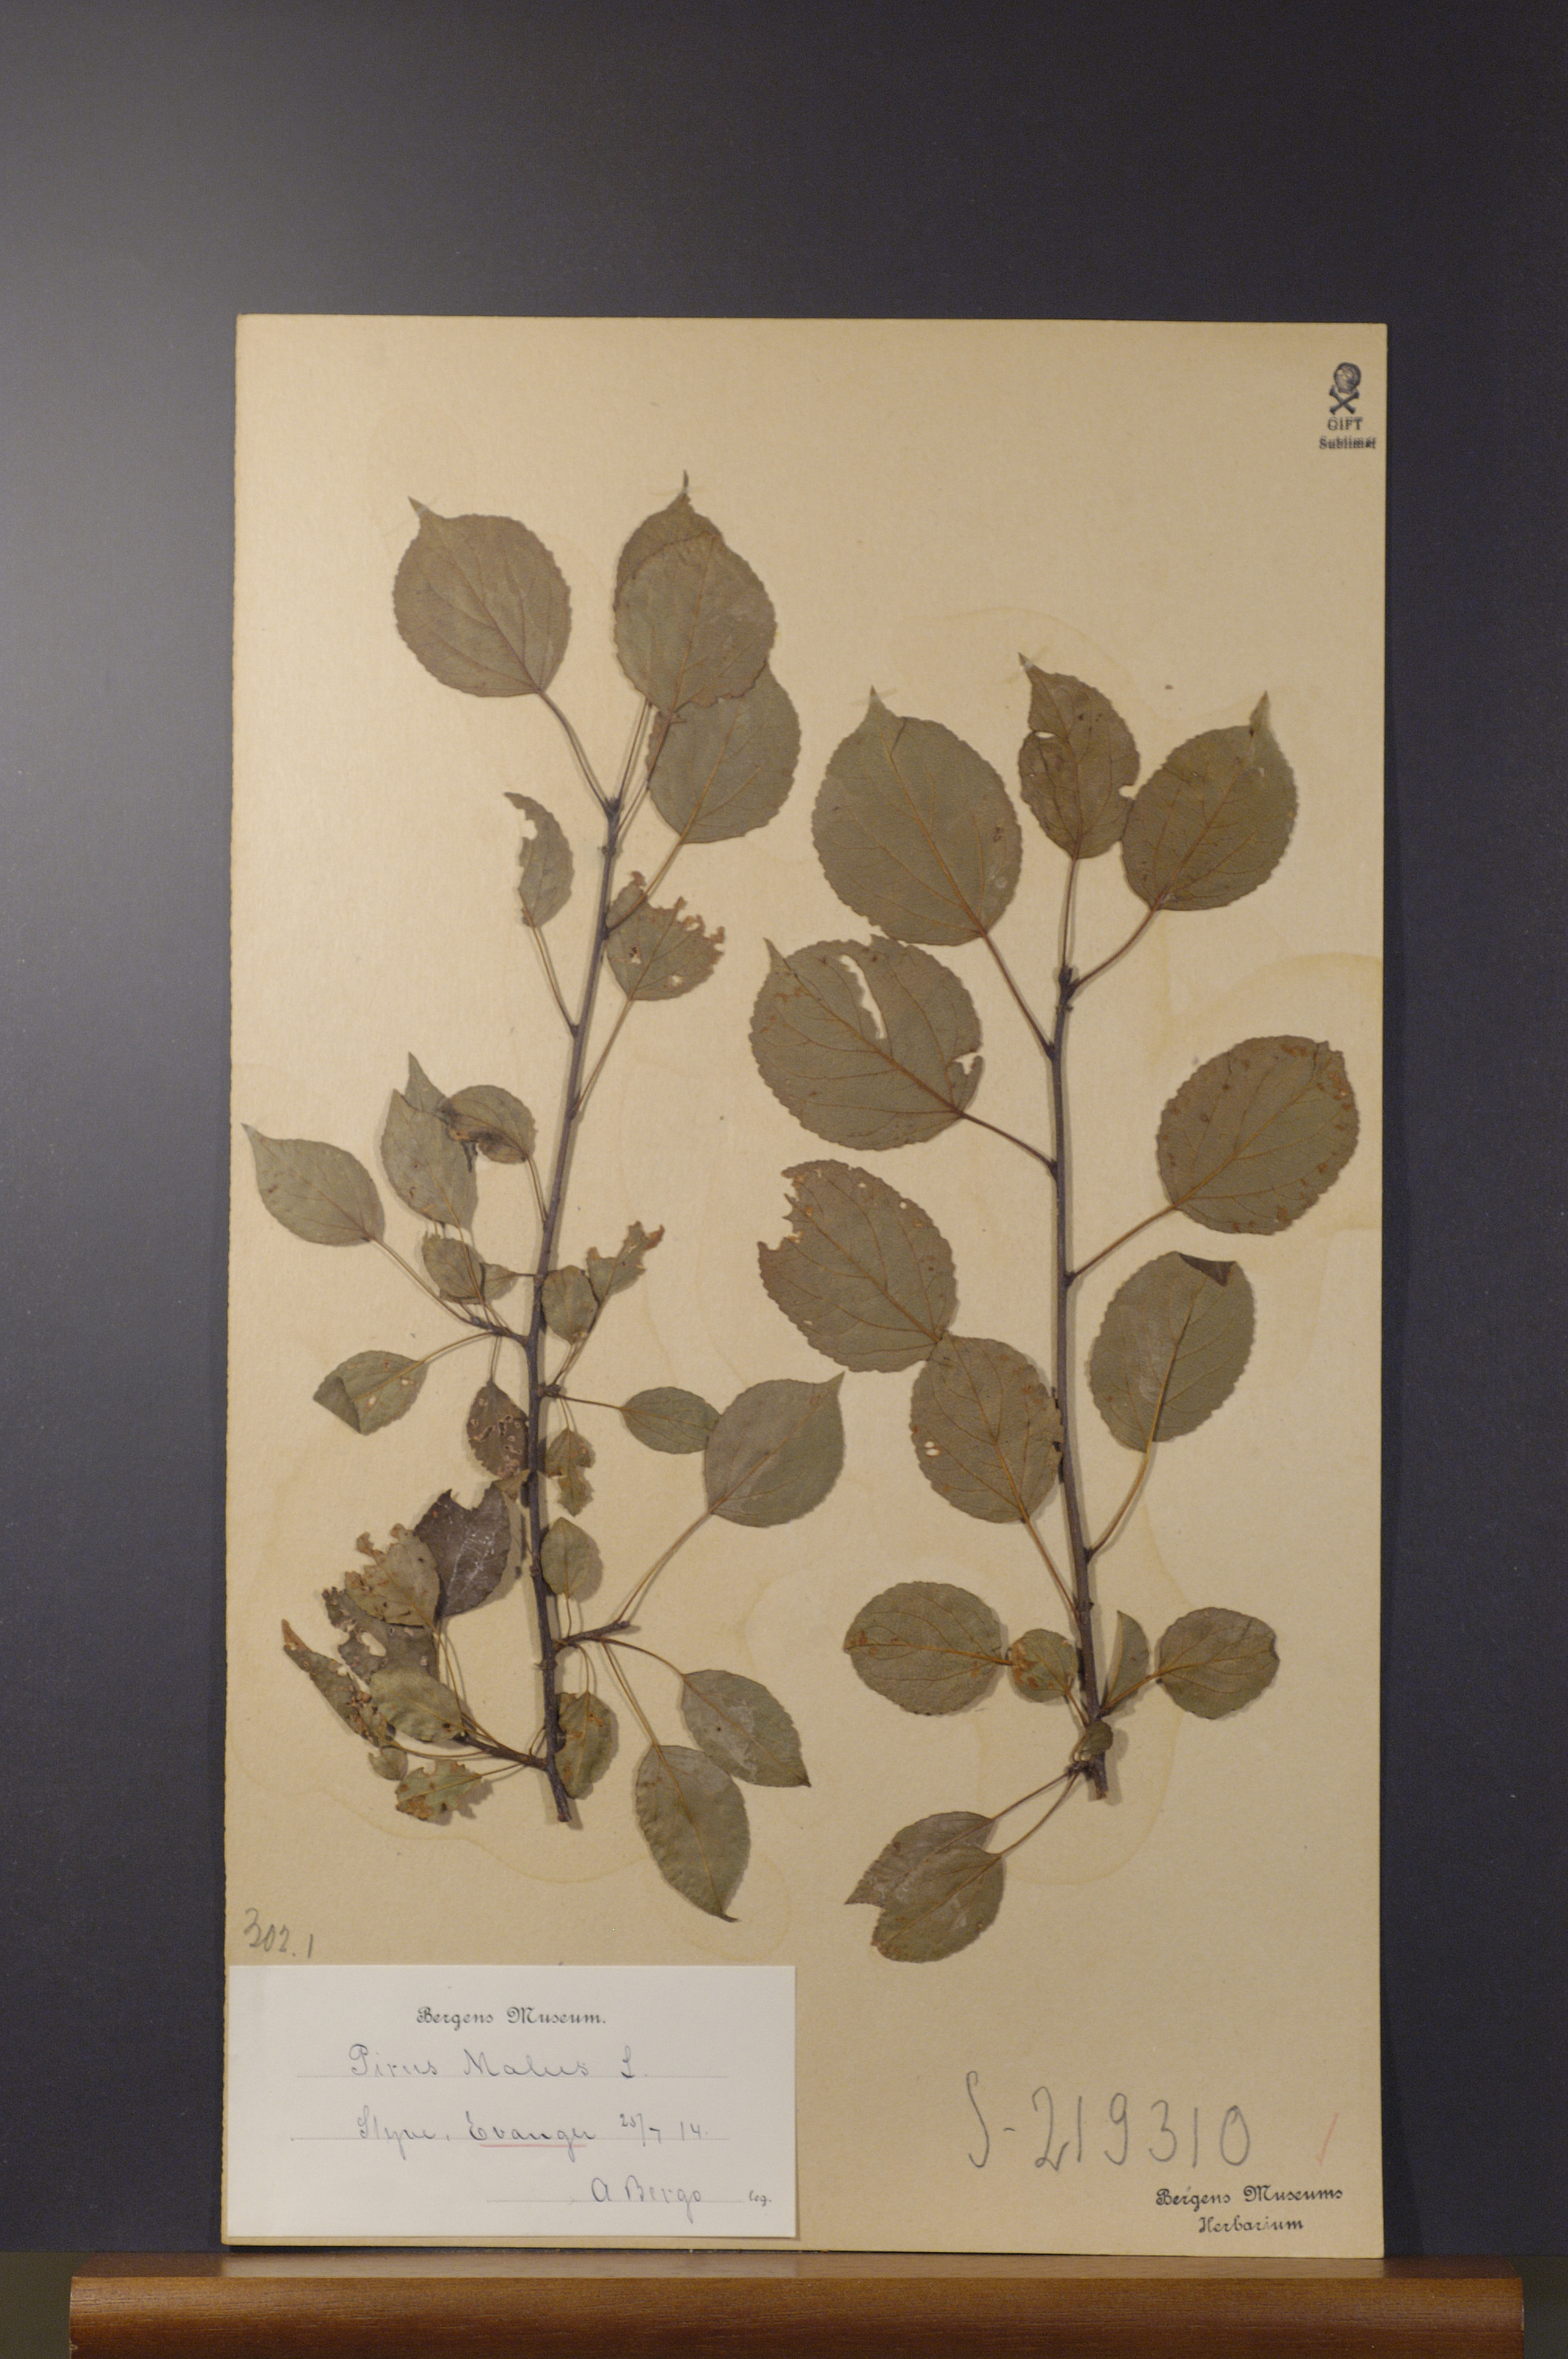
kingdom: Plantae
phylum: Tracheophyta
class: Magnoliopsida
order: Rosales
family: Rosaceae
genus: Malus
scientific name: Malus domestica
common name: Apple
